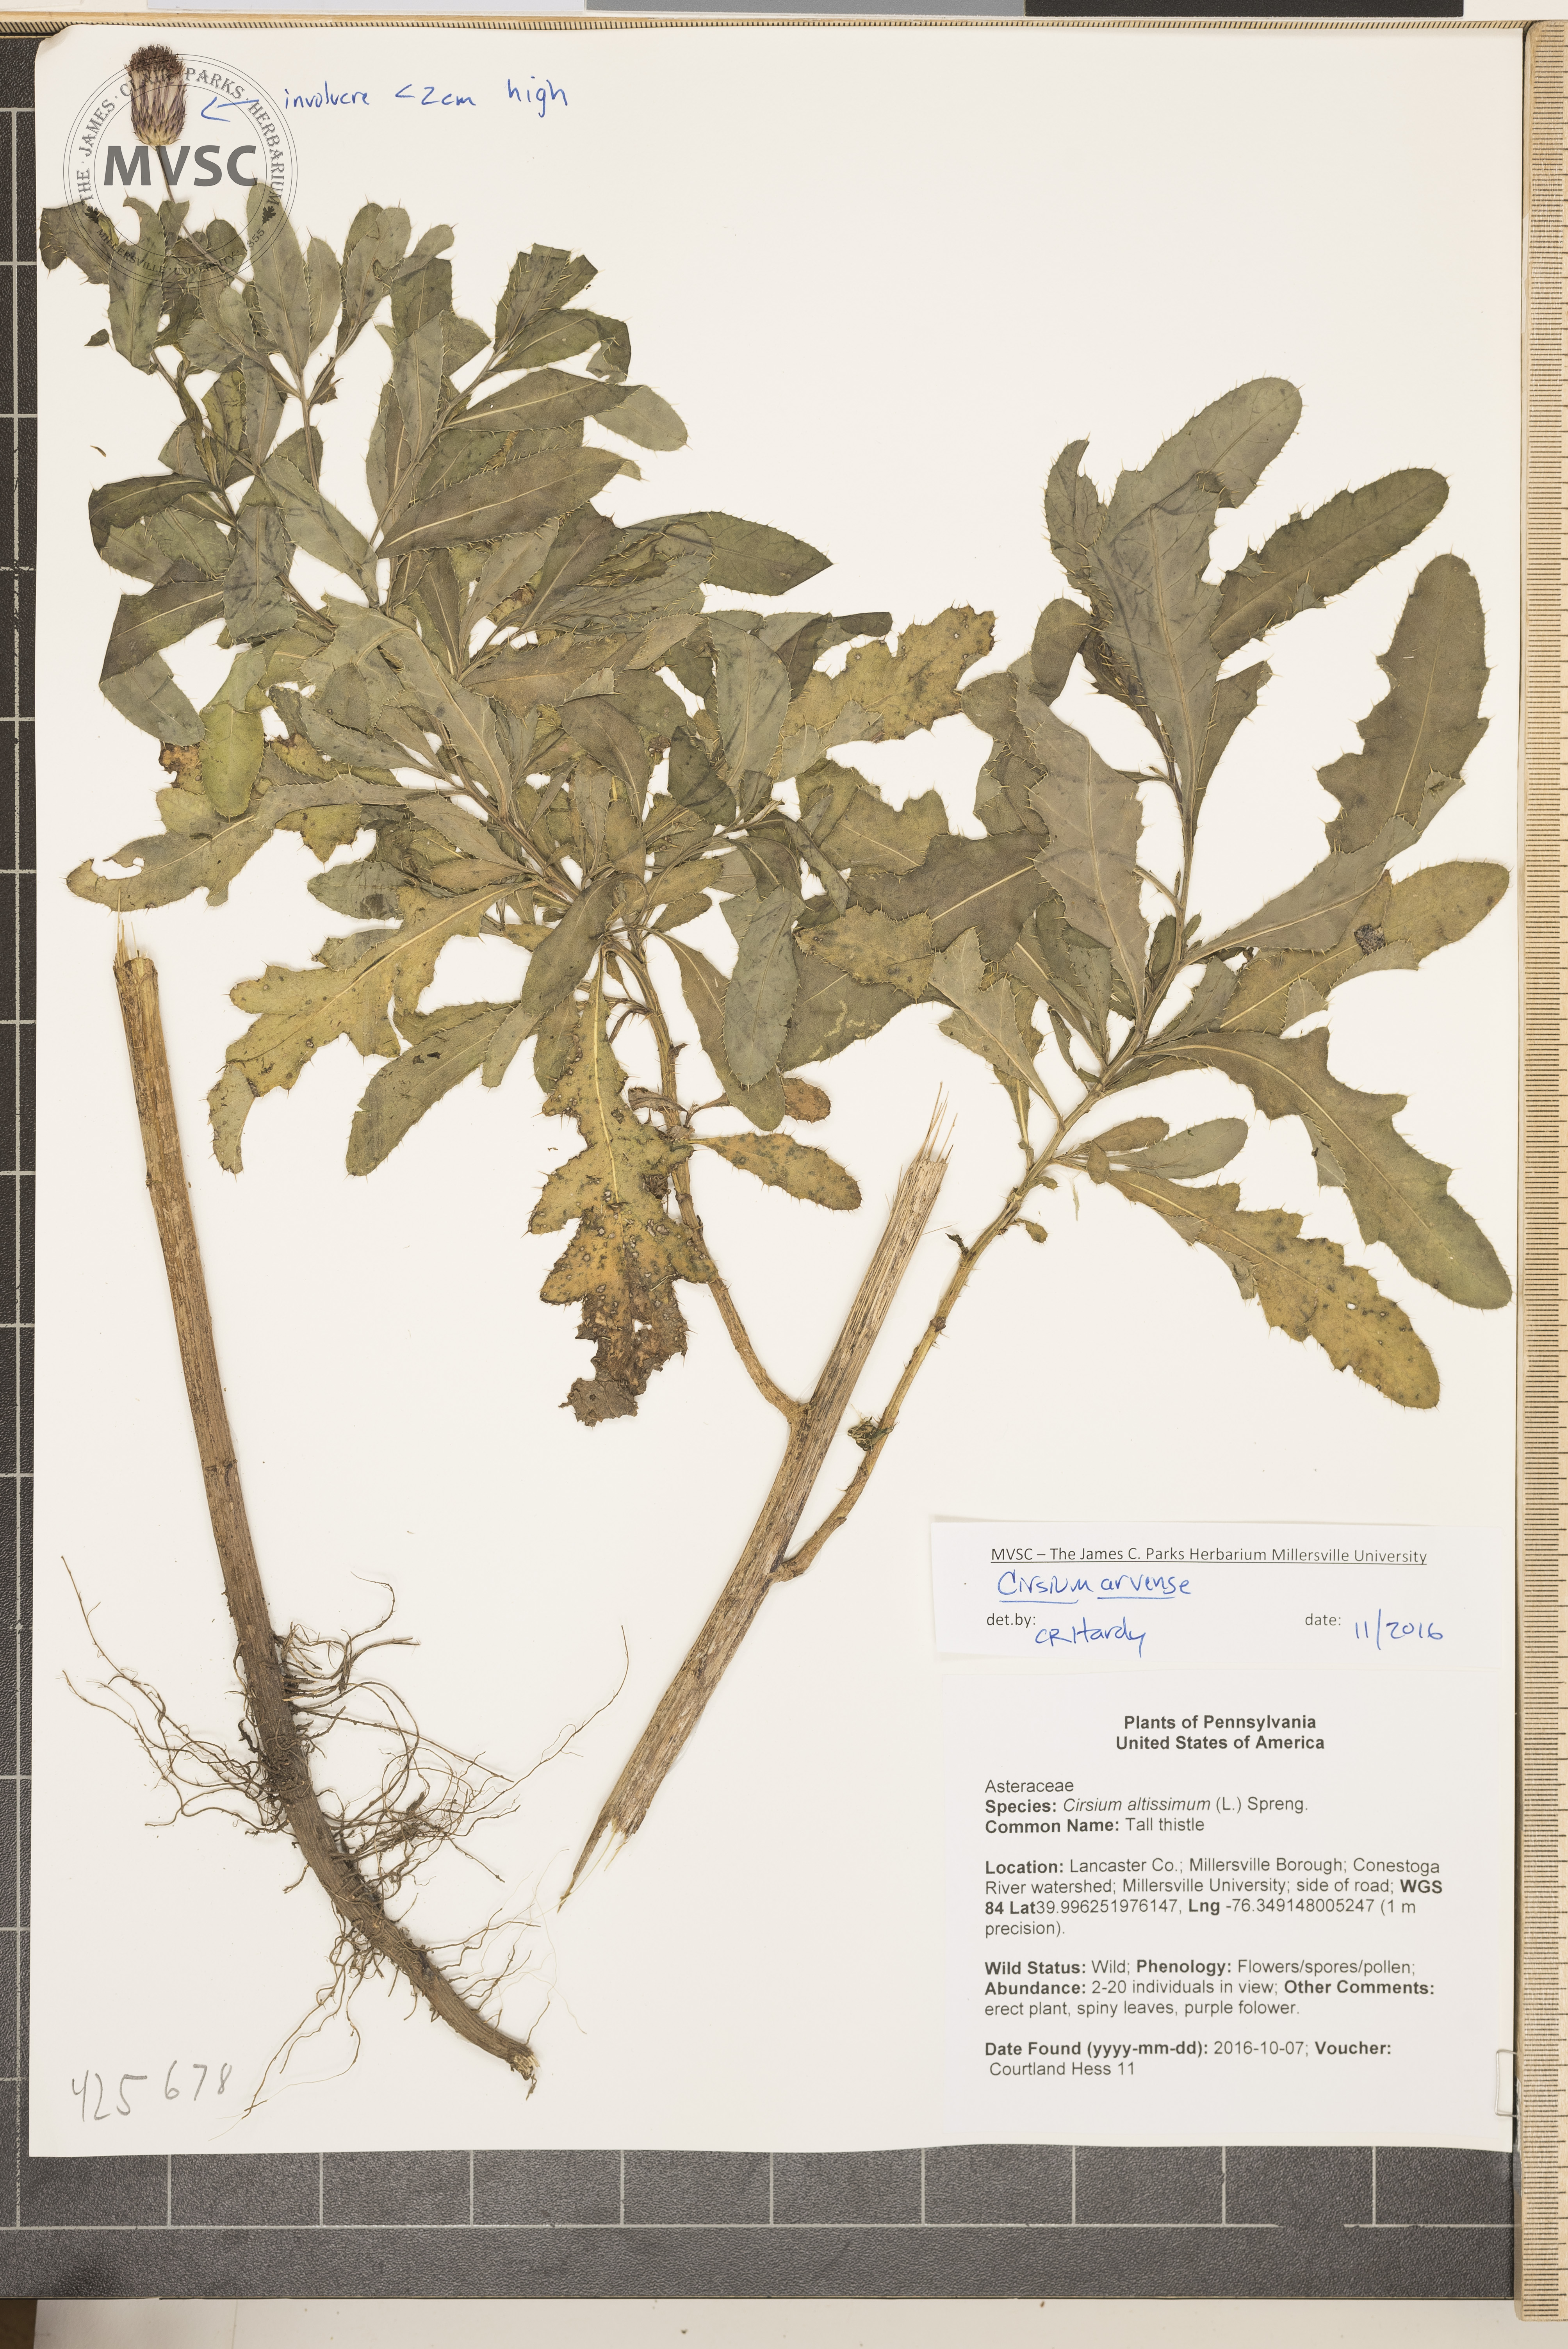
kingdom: Plantae
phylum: Tracheophyta
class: Magnoliopsida
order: Asterales
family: Asteraceae
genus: Cirsium
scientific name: Cirsium arvense
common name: Creeping thistle
